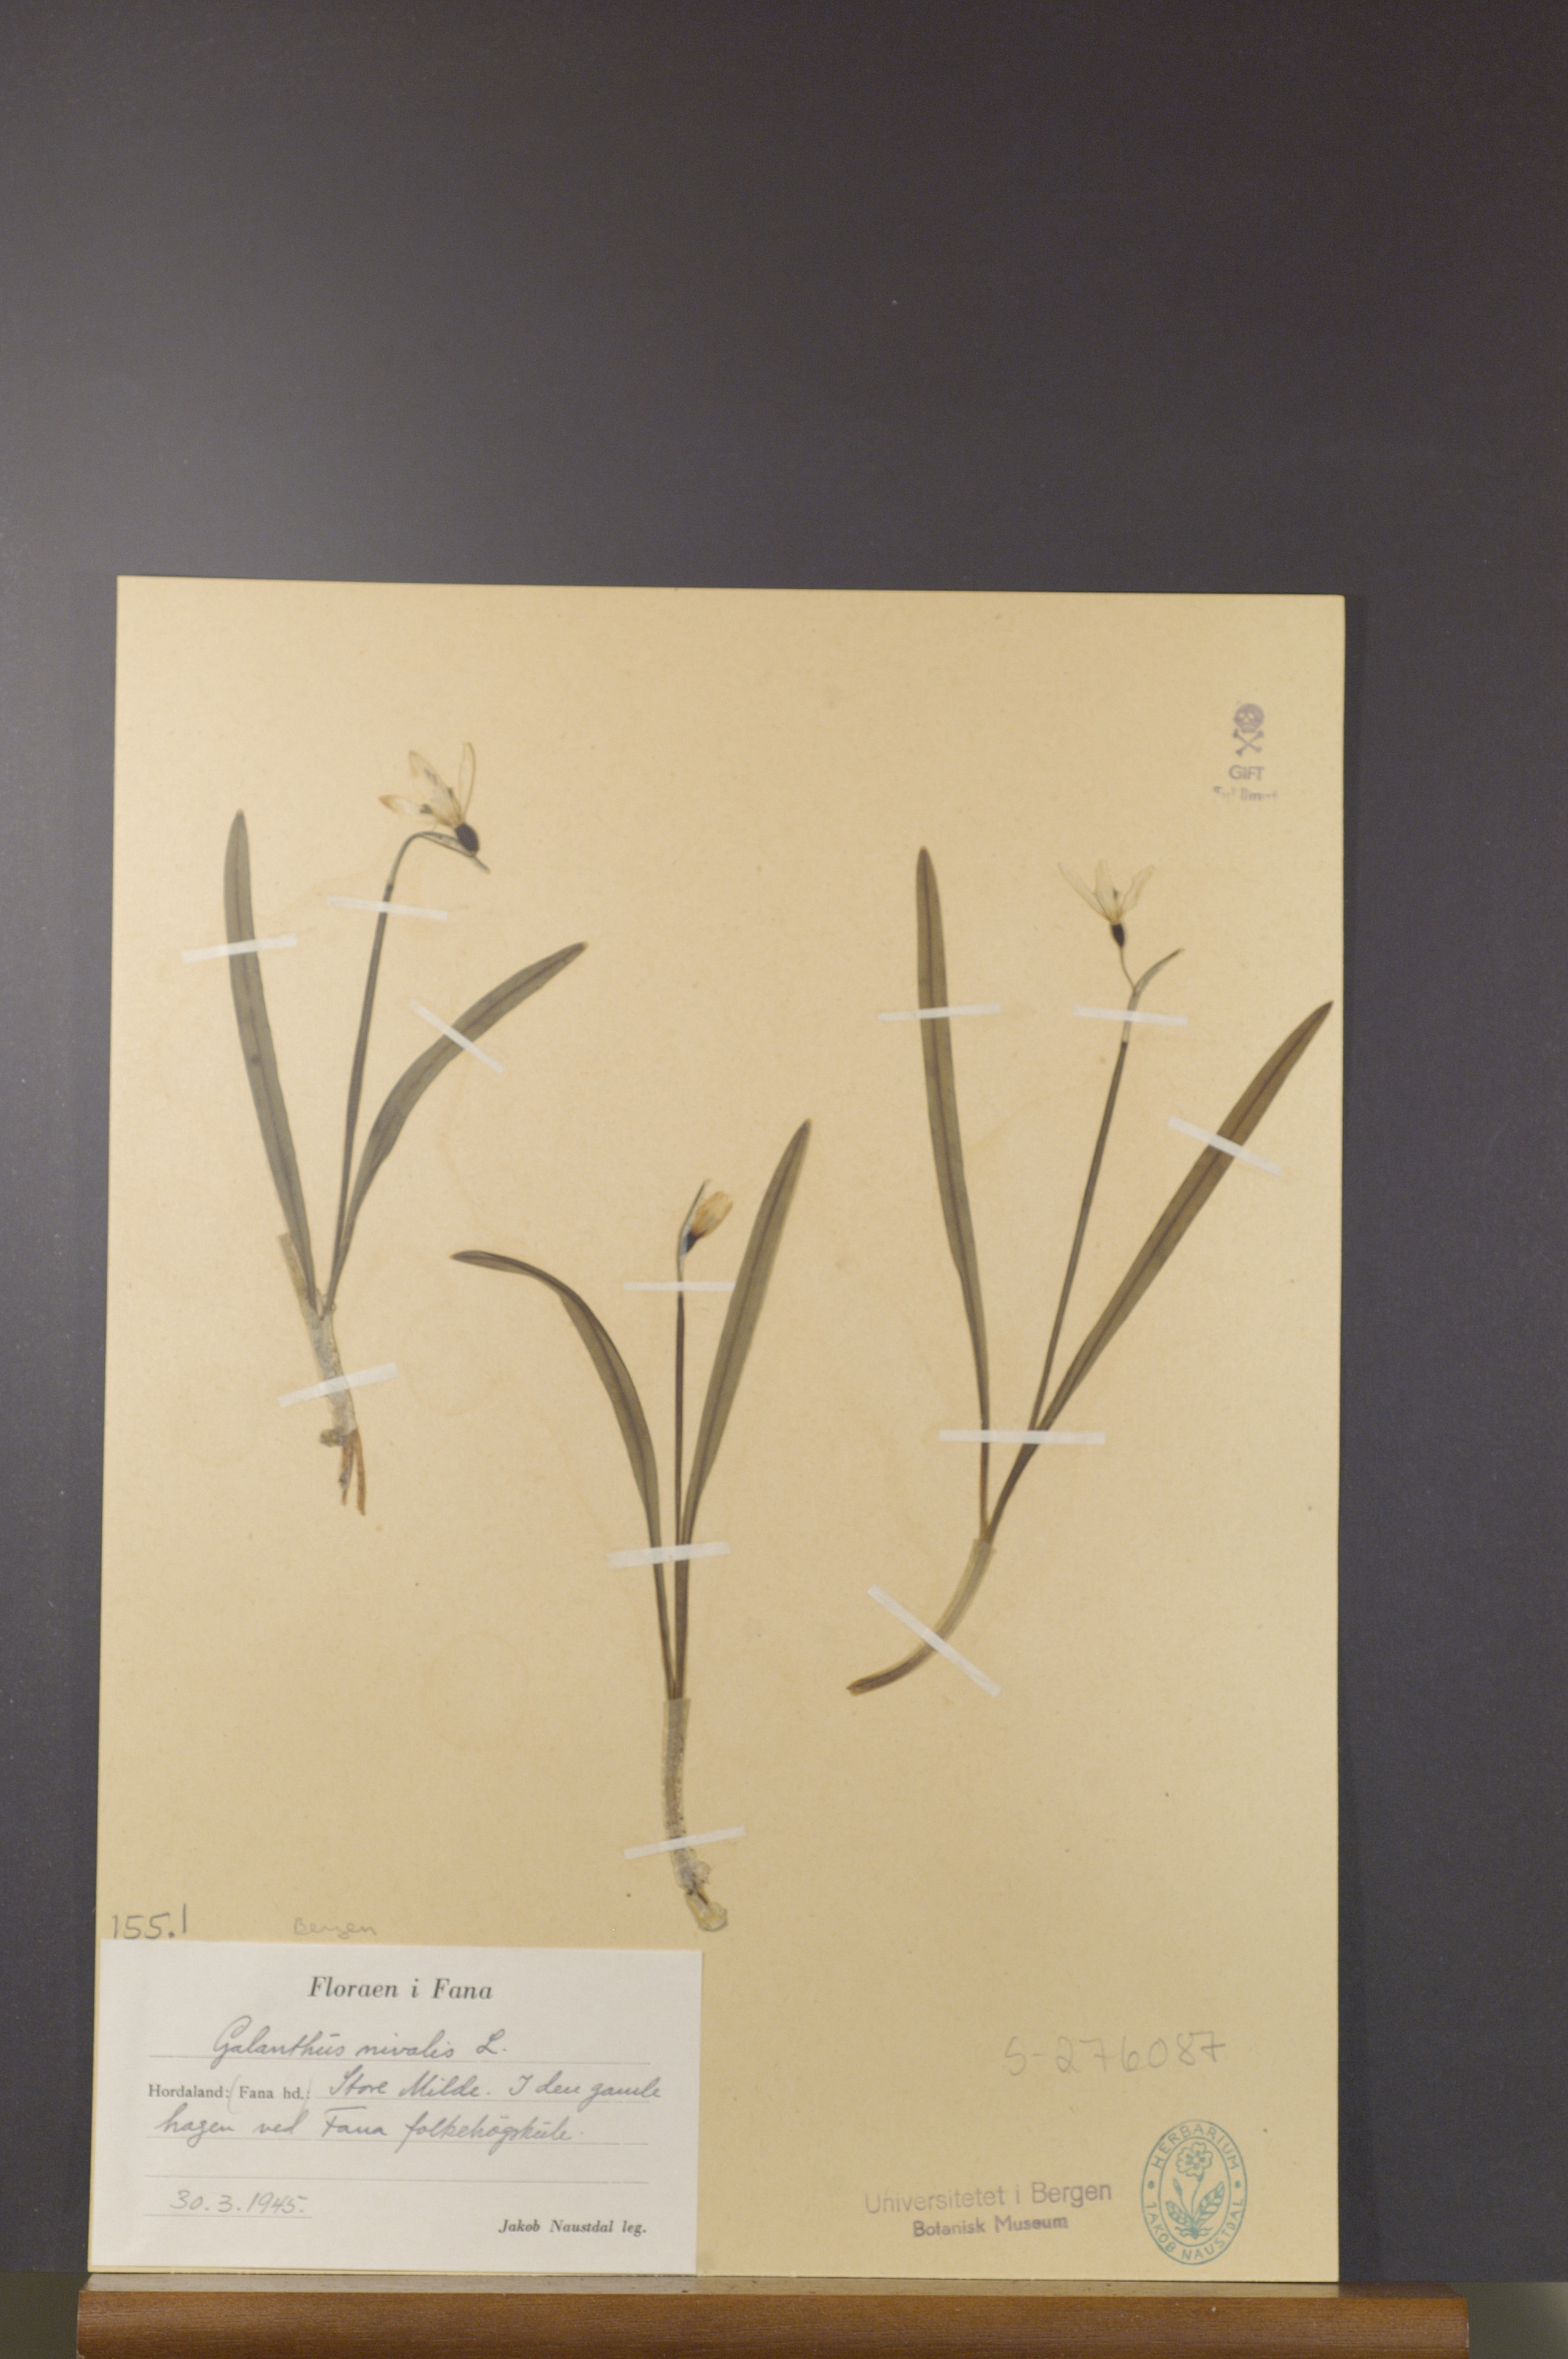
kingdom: Plantae
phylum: Tracheophyta
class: Liliopsida
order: Asparagales
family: Amaryllidaceae
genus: Galanthus
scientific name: Galanthus nivalis
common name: Snowdrop
